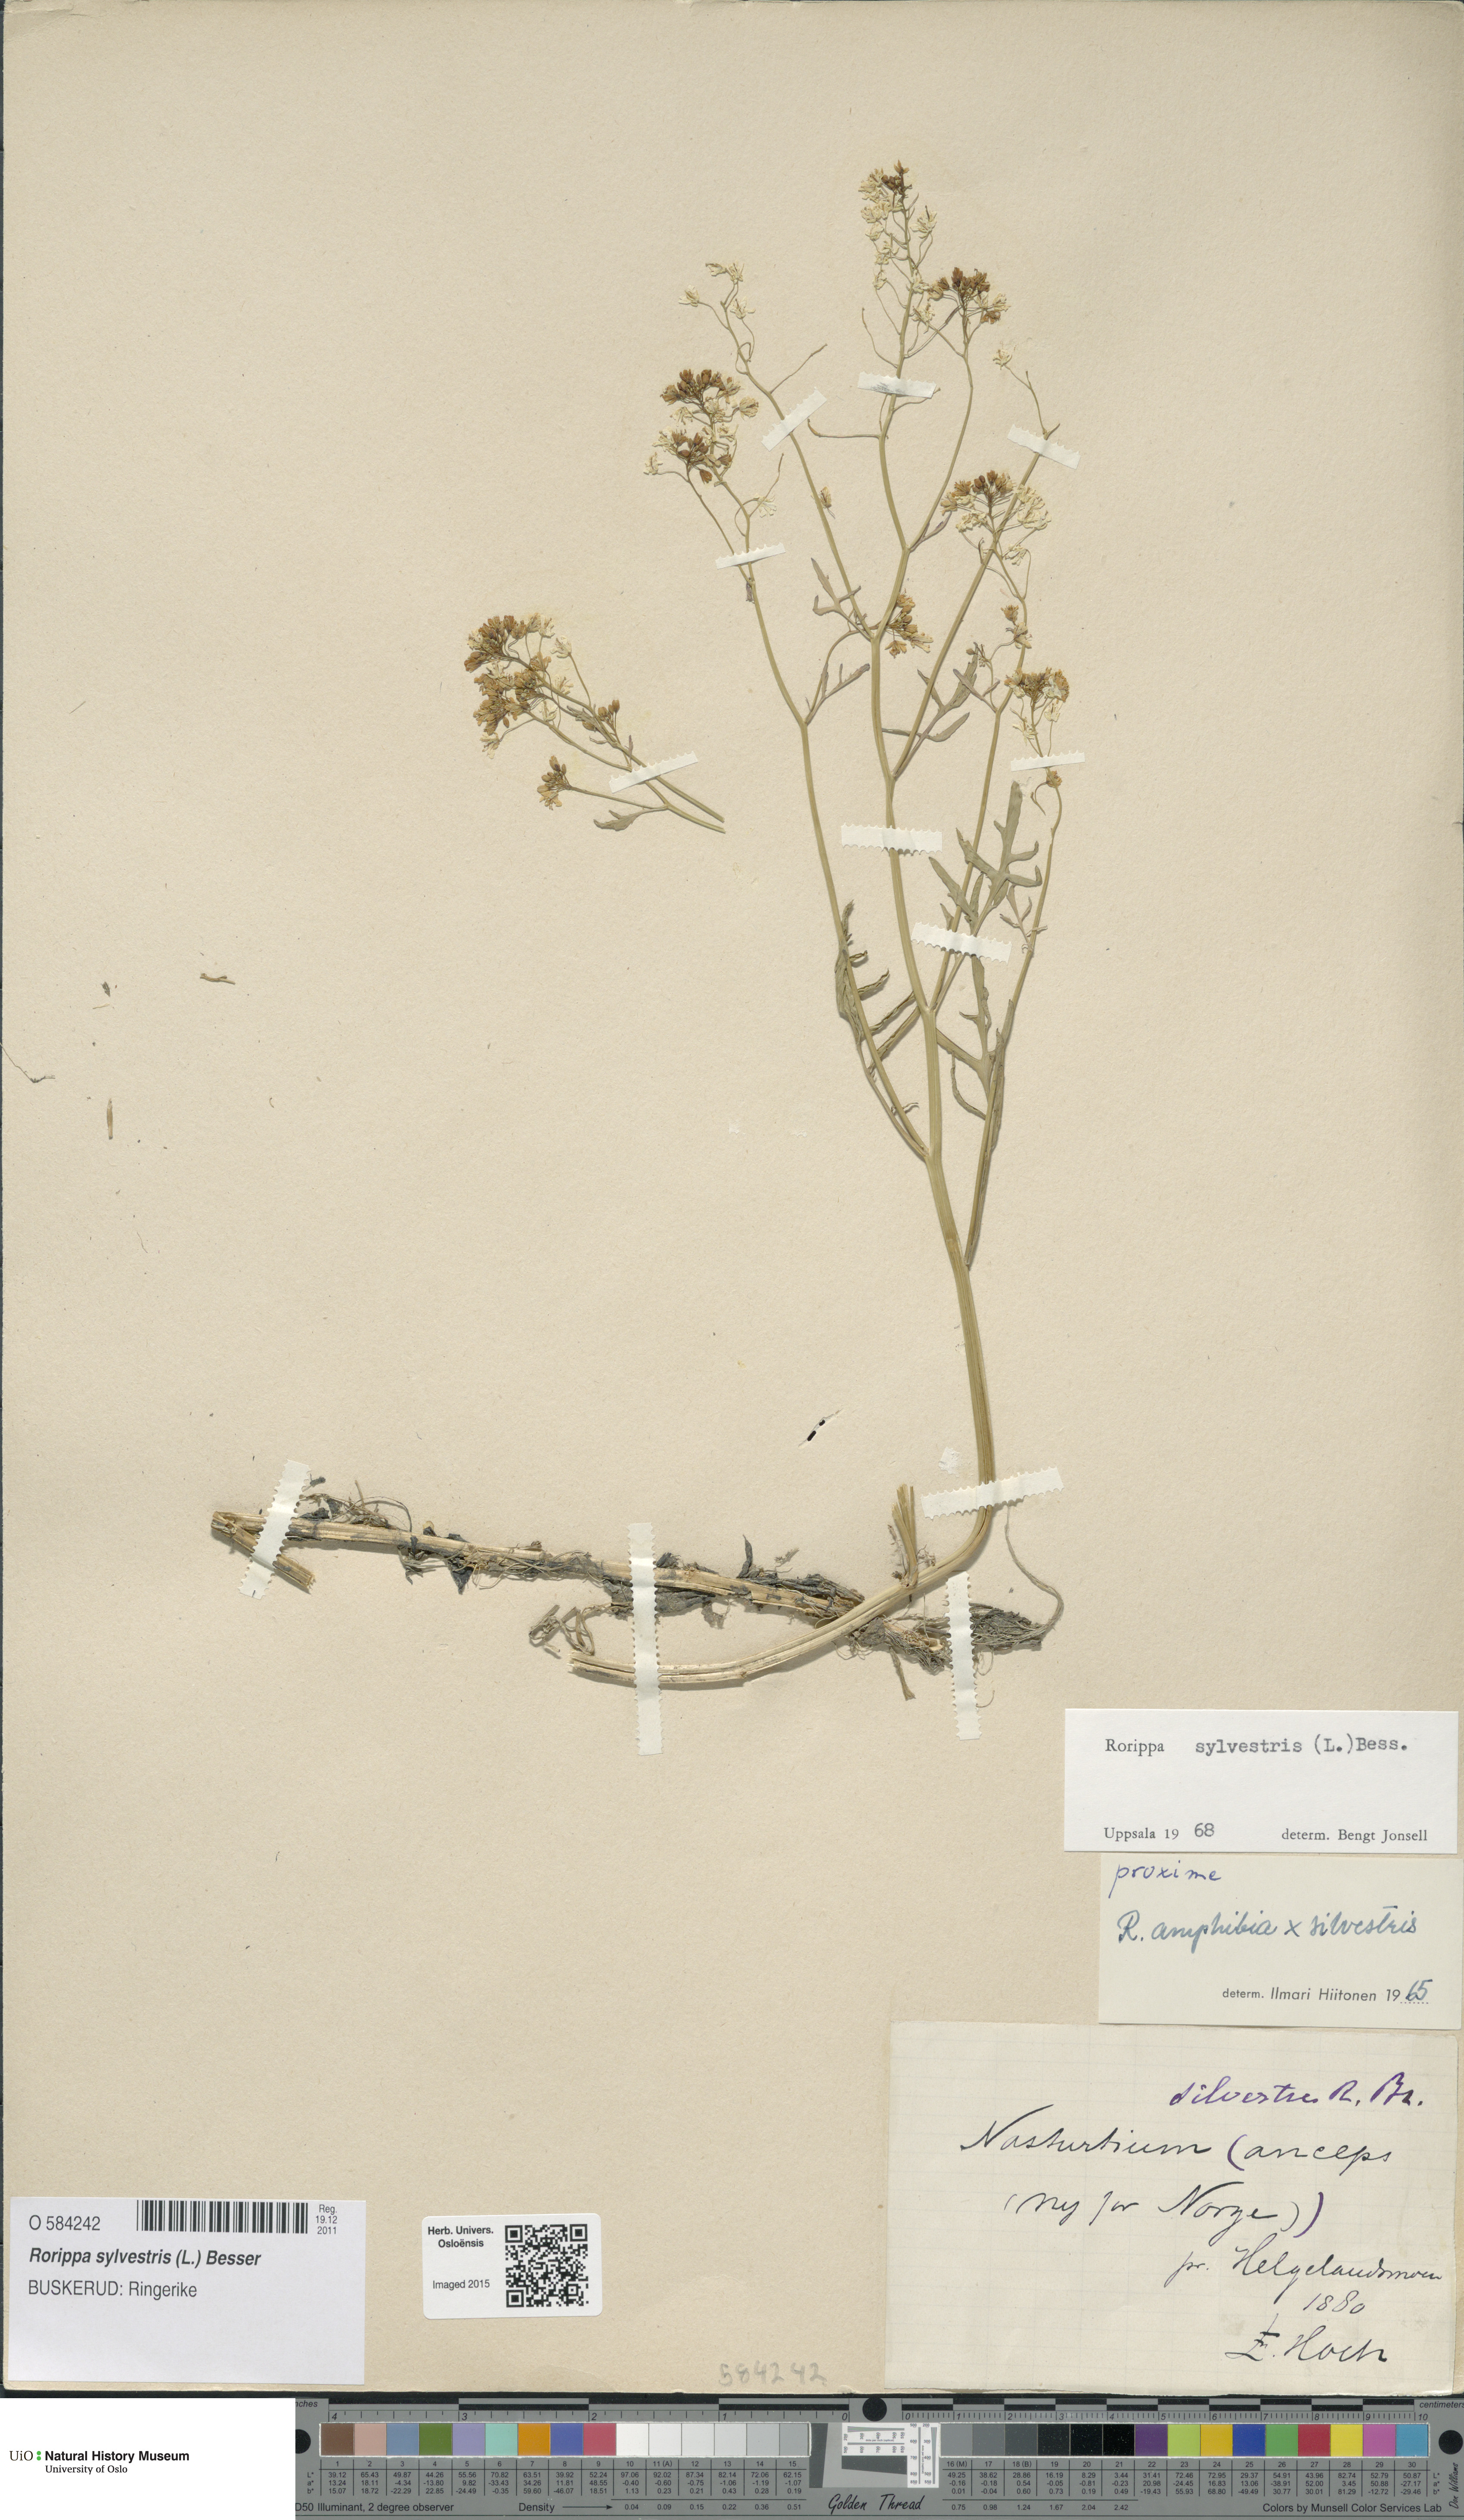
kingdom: Plantae
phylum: Tracheophyta
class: Magnoliopsida
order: Brassicales
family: Brassicaceae
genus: Rorippa
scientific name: Rorippa sylvestris
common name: Creeping yellowcress
